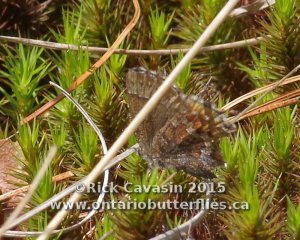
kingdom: Animalia
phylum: Arthropoda
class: Insecta
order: Lepidoptera
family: Lycaenidae
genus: Incisalia
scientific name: Incisalia niphon
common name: Eastern Pine Elfin
